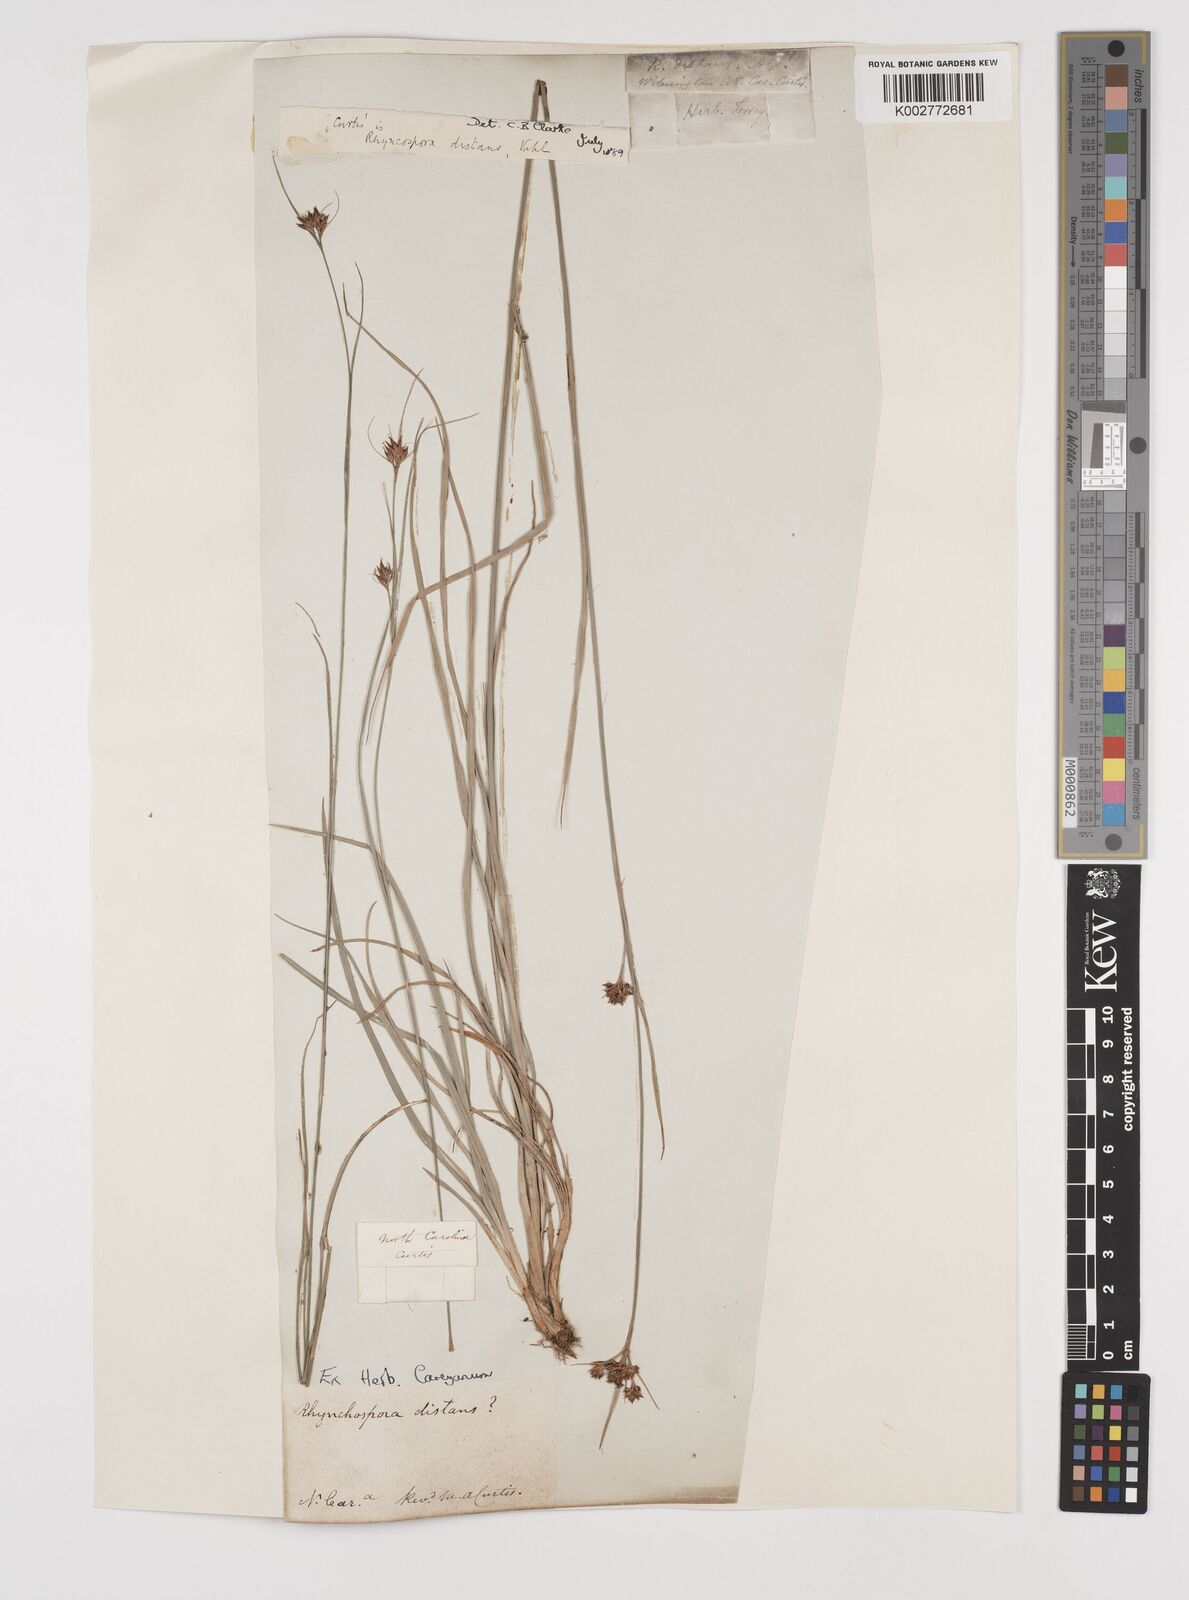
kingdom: Plantae
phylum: Tracheophyta
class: Liliopsida
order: Poales
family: Cyperaceae
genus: Rhynchospora
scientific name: Rhynchospora fascicularis
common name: Fascicled beak sedge
